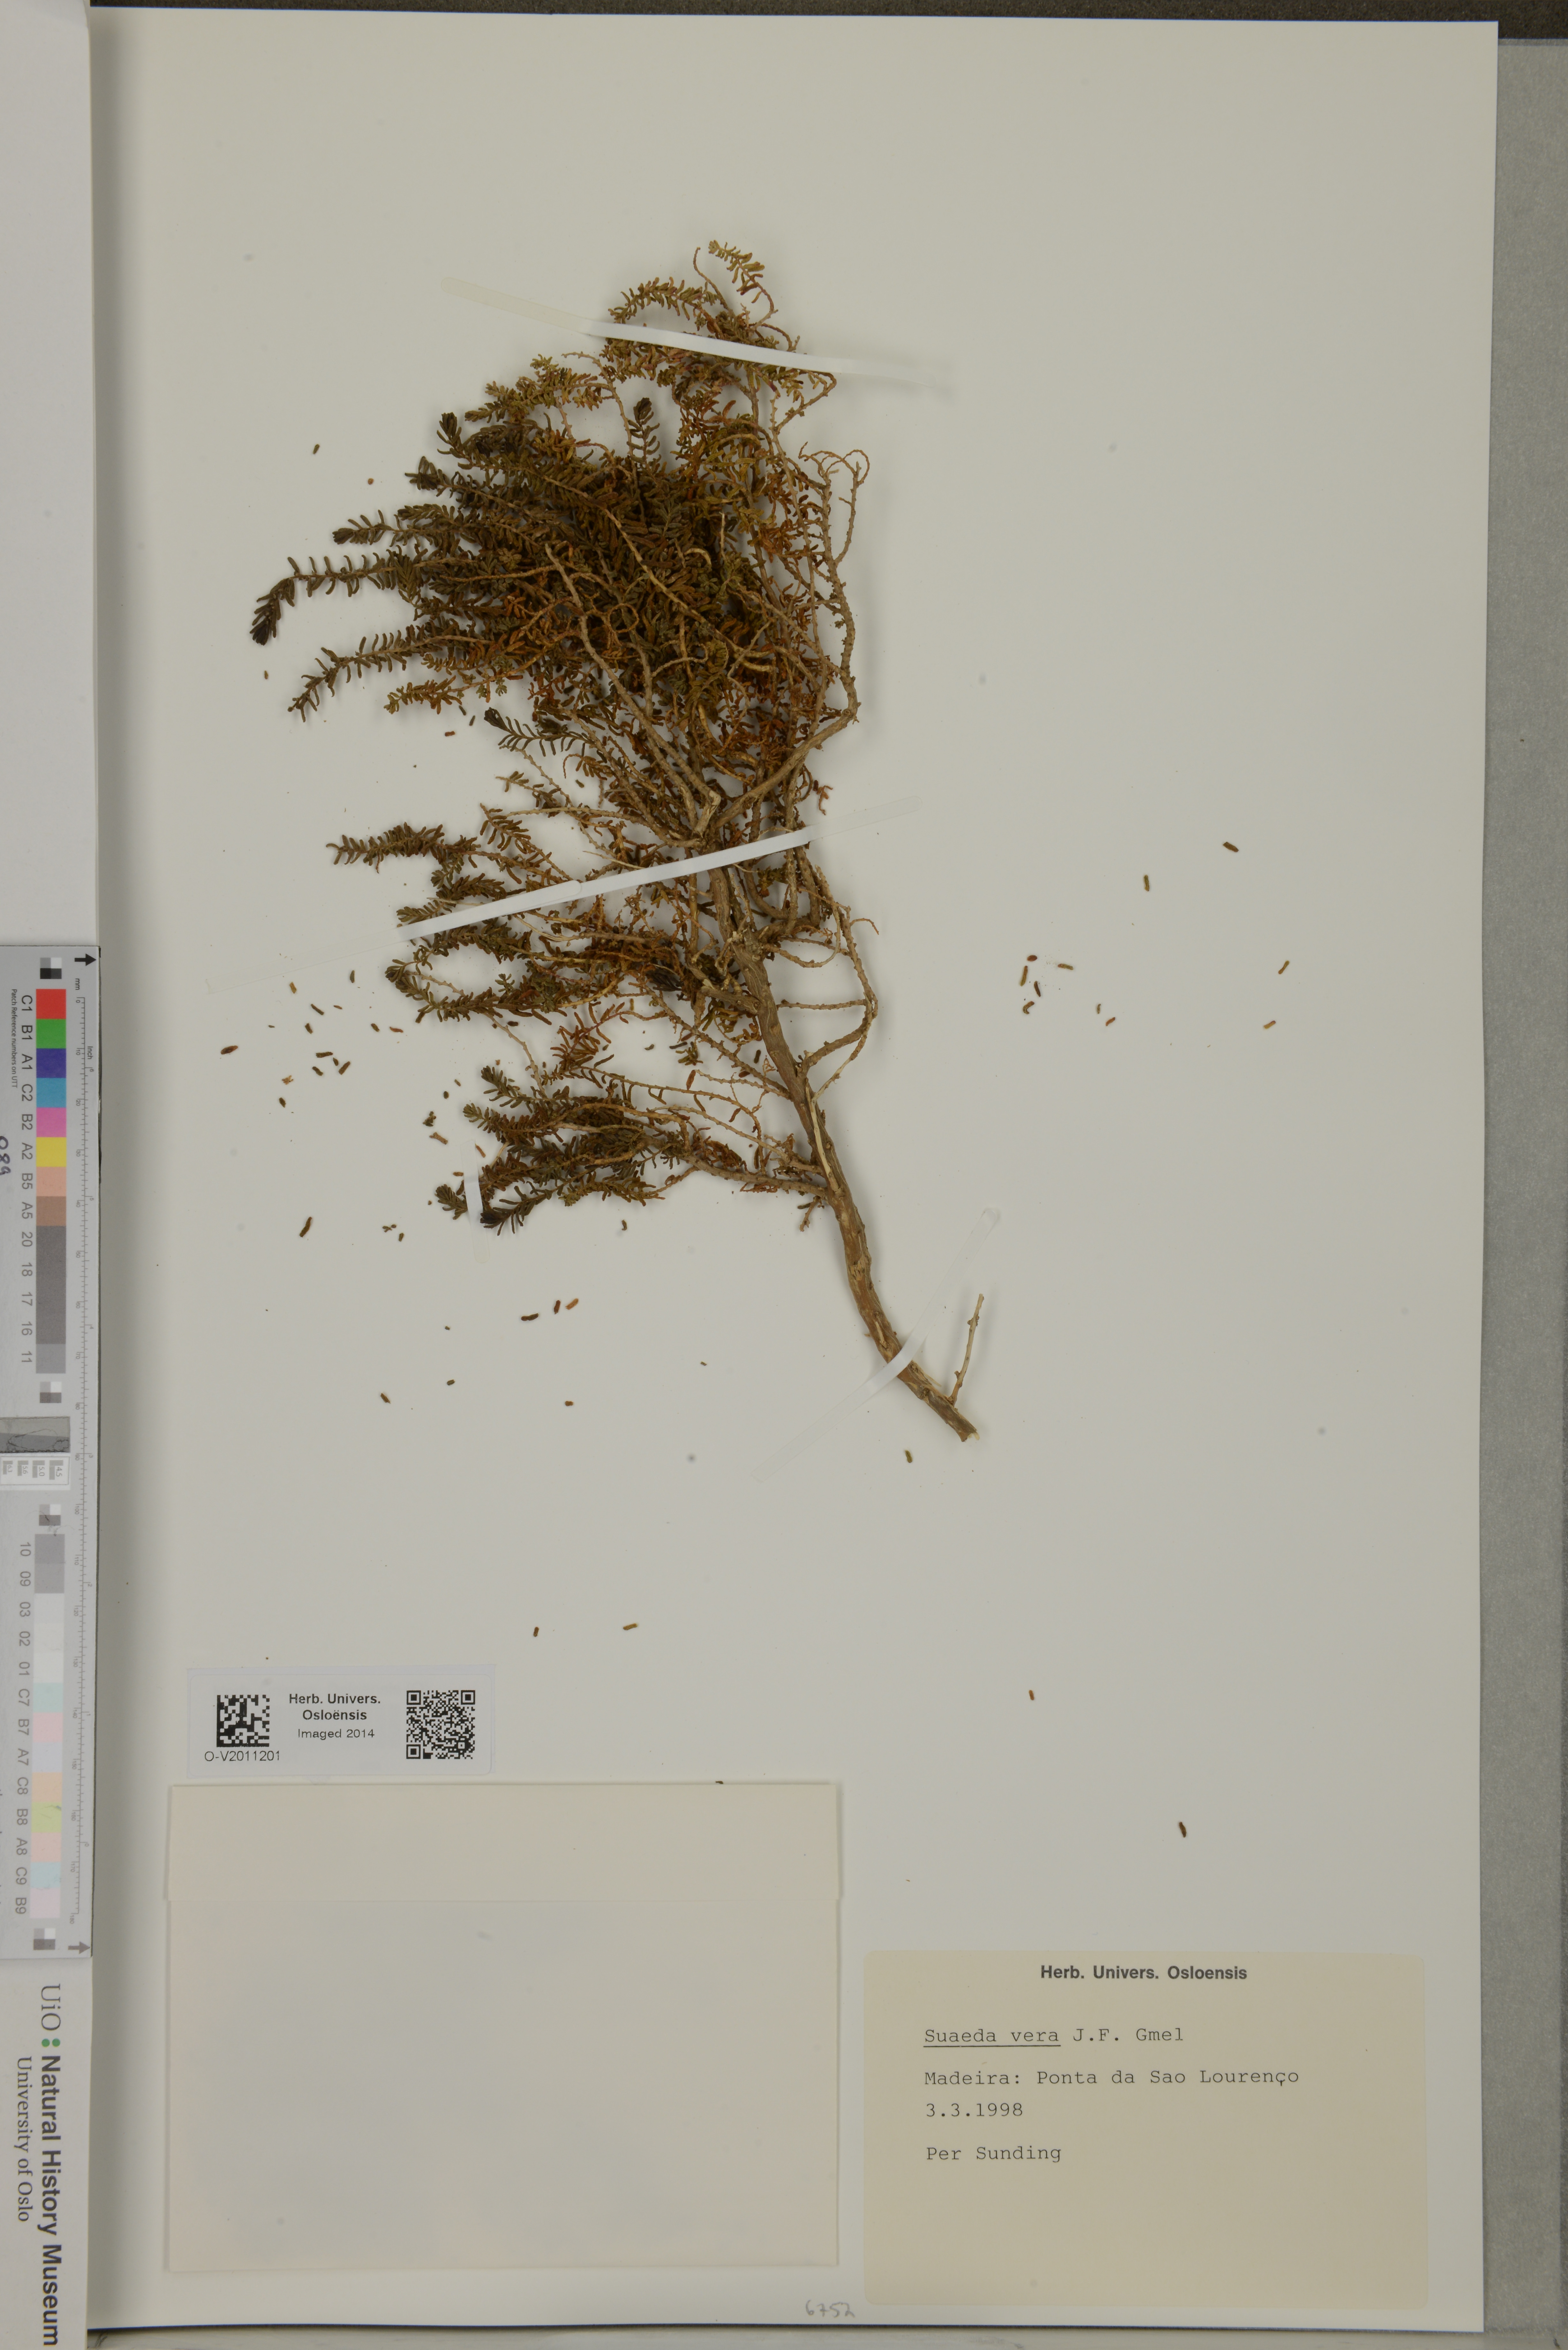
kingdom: Plantae
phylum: Tracheophyta
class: Magnoliopsida
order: Caryophyllales
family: Amaranthaceae
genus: Suaeda
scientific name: Suaeda vera
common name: Shrubby sea-blite
